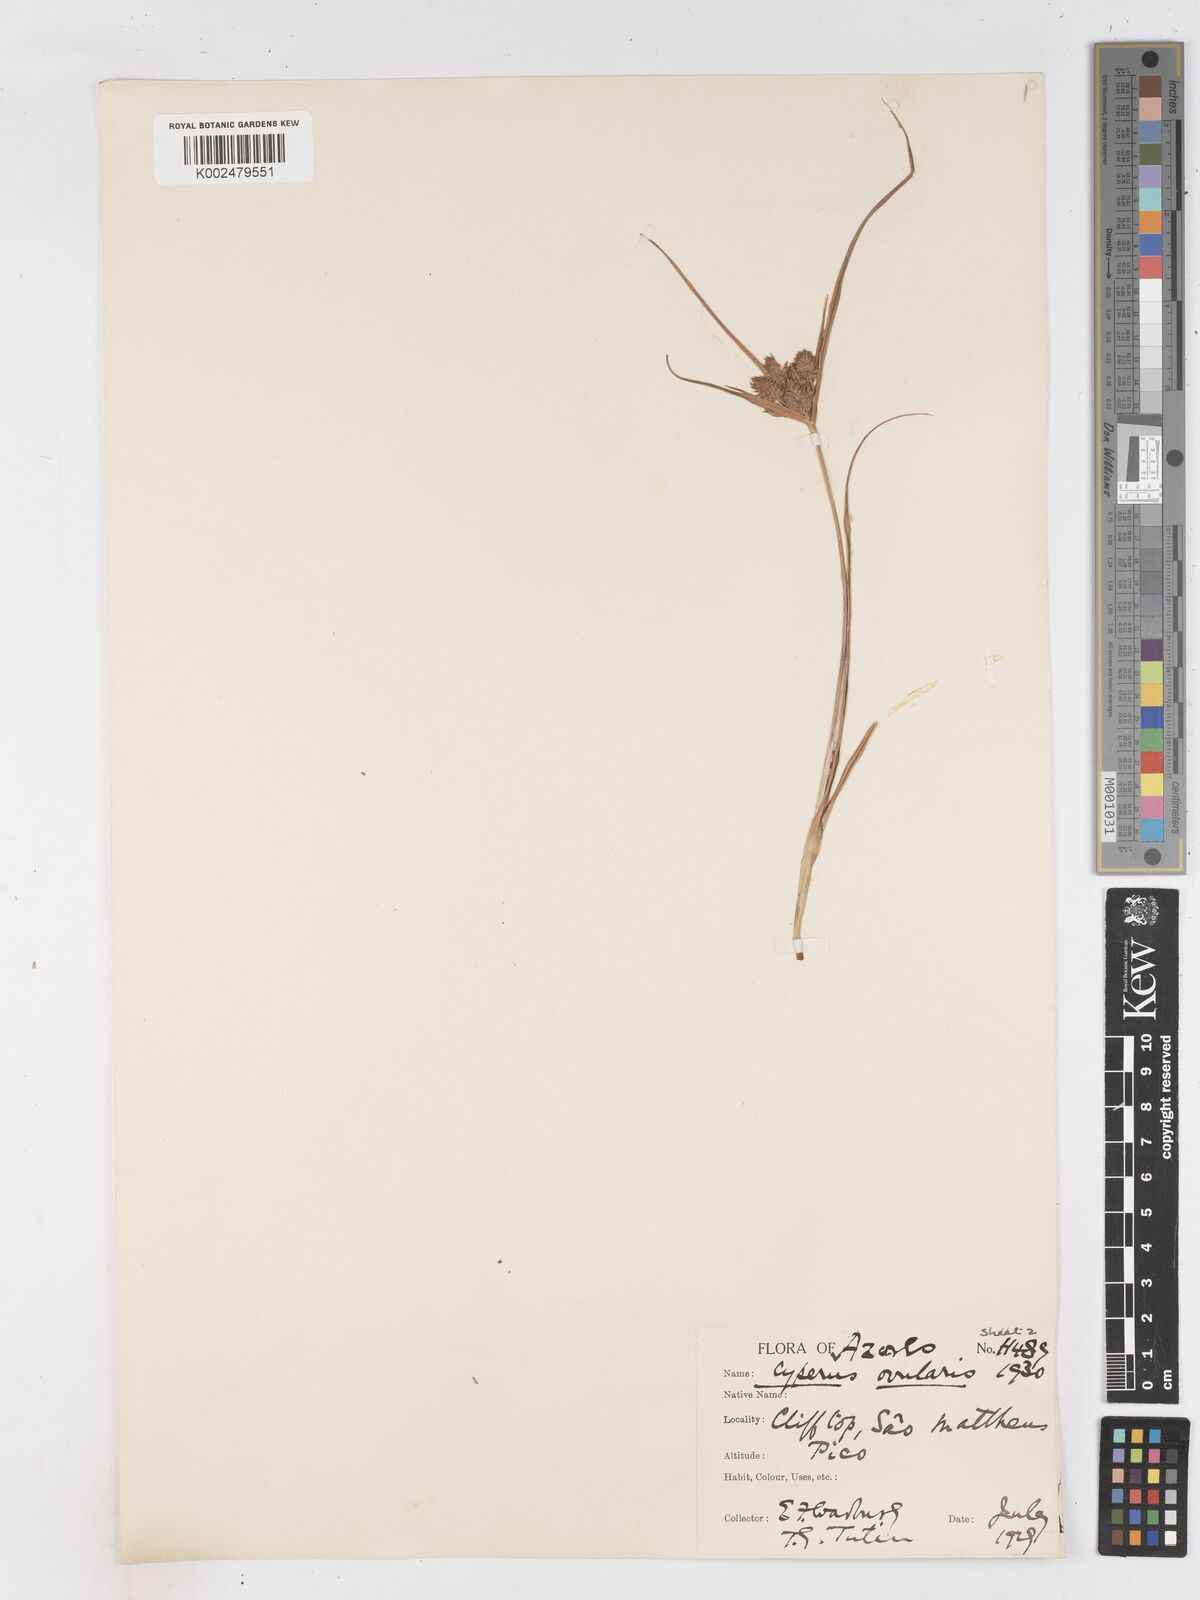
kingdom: Plantae
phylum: Tracheophyta
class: Liliopsida
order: Poales
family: Cyperaceae
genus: Cyperus
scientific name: Cyperus cyperoides
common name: Pacific island flat sedge
